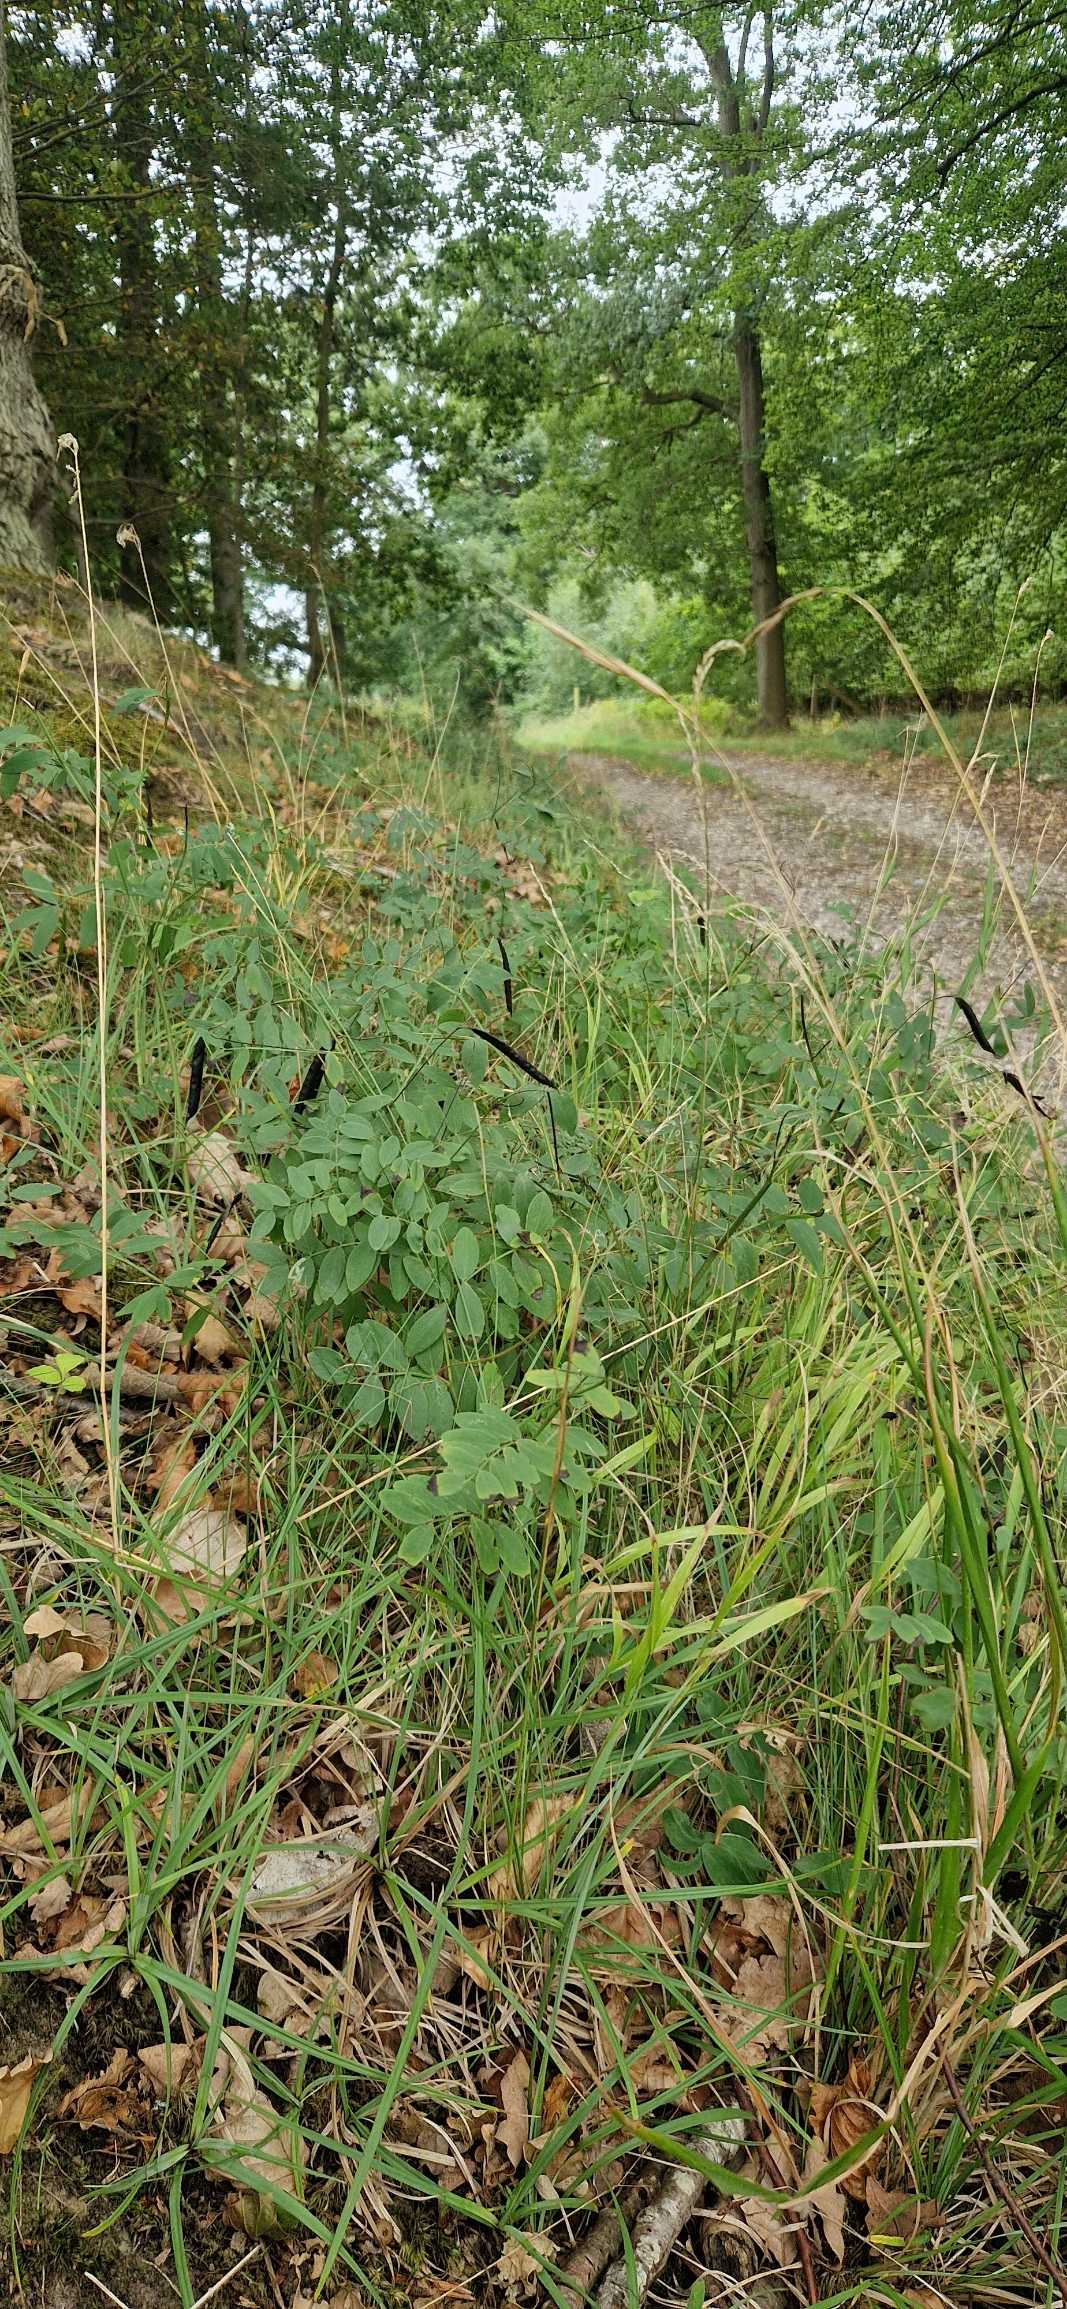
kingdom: Plantae
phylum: Tracheophyta
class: Magnoliopsida
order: Fabales
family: Fabaceae
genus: Lathyrus
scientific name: Lathyrus niger
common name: Sort fladbælg
